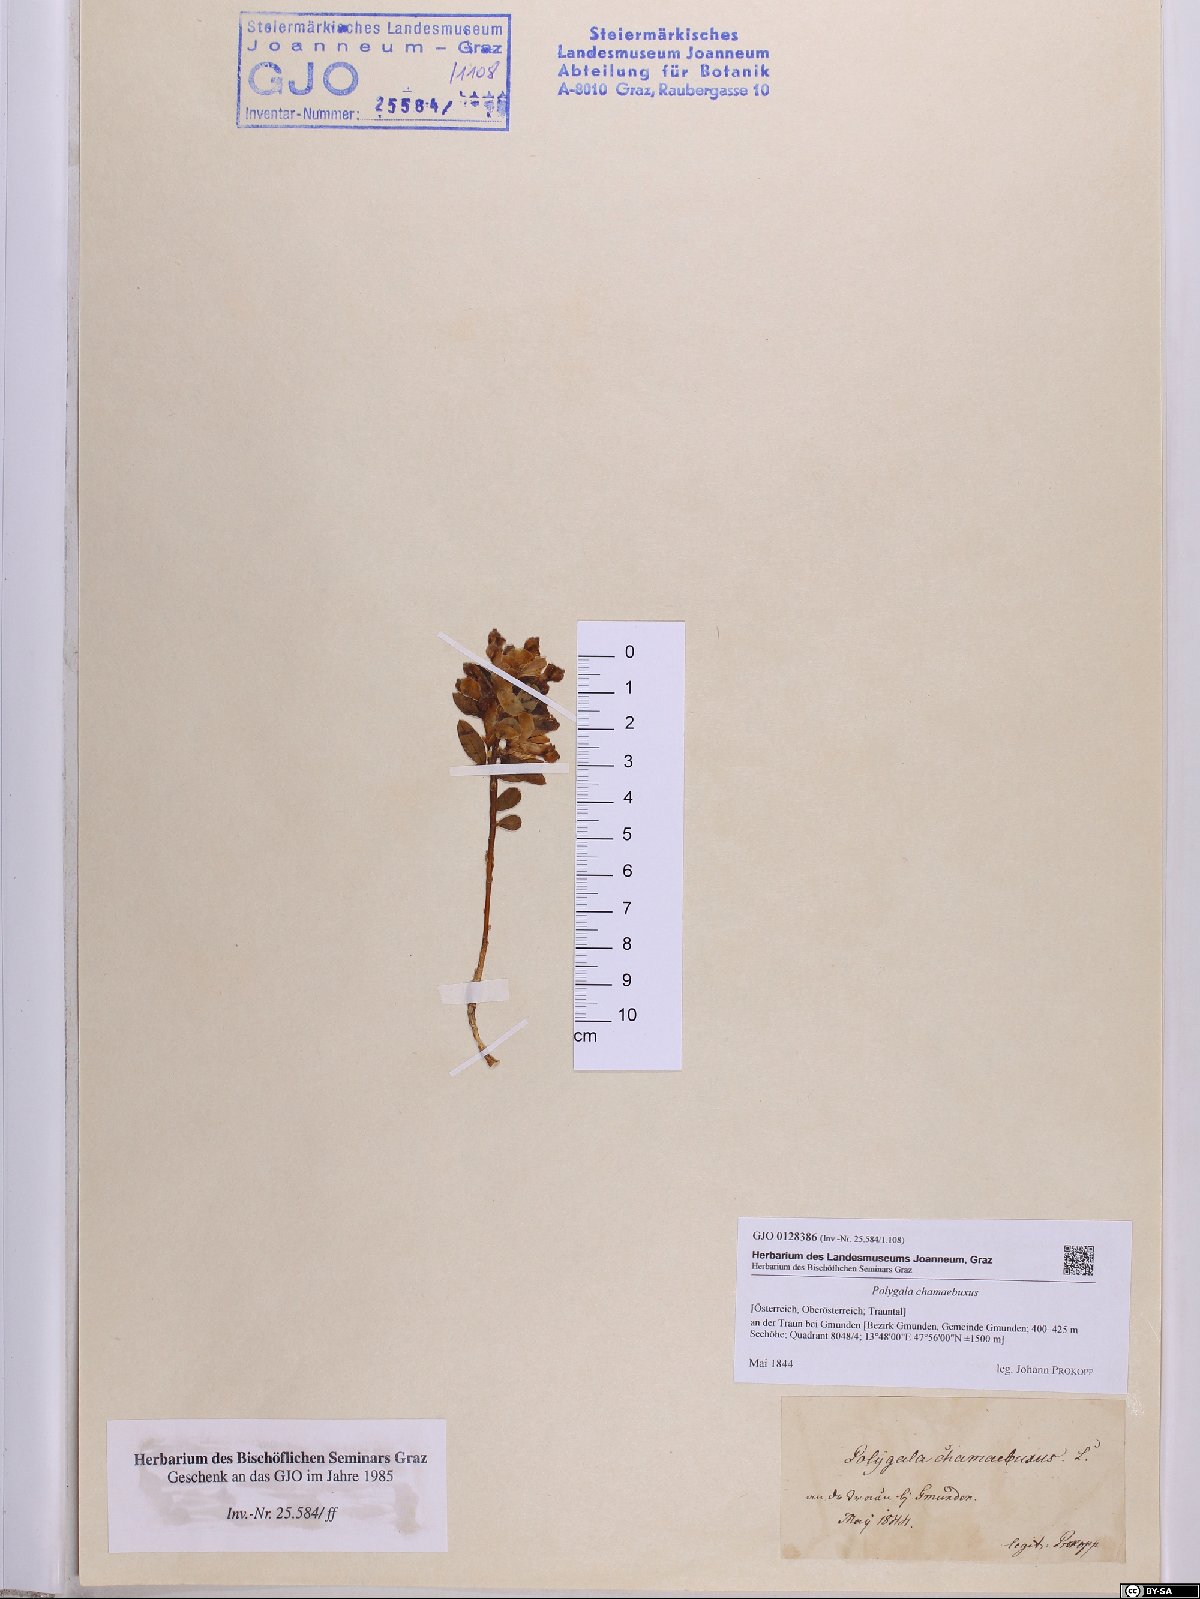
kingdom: Plantae
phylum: Tracheophyta
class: Magnoliopsida
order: Fabales
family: Polygalaceae
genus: Polygaloides
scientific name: Polygaloides chamaebuxus
